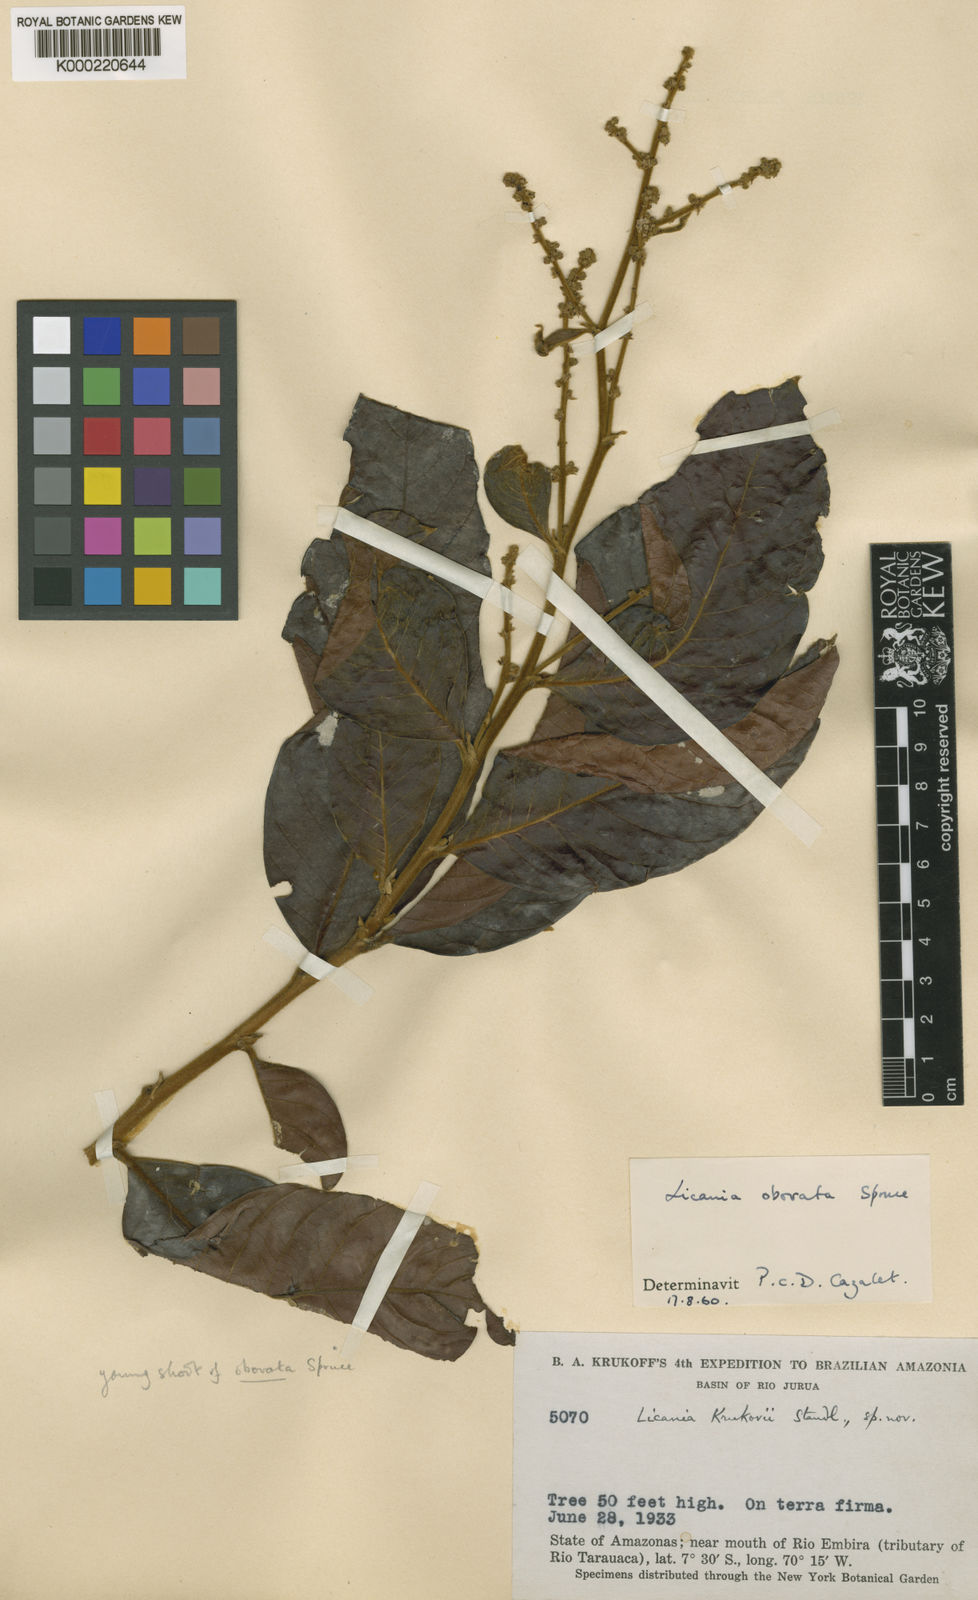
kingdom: Plantae
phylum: Tracheophyta
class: Magnoliopsida
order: Malpighiales
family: Chrysobalanaceae
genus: Hymenopus
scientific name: Hymenopus krukovii
